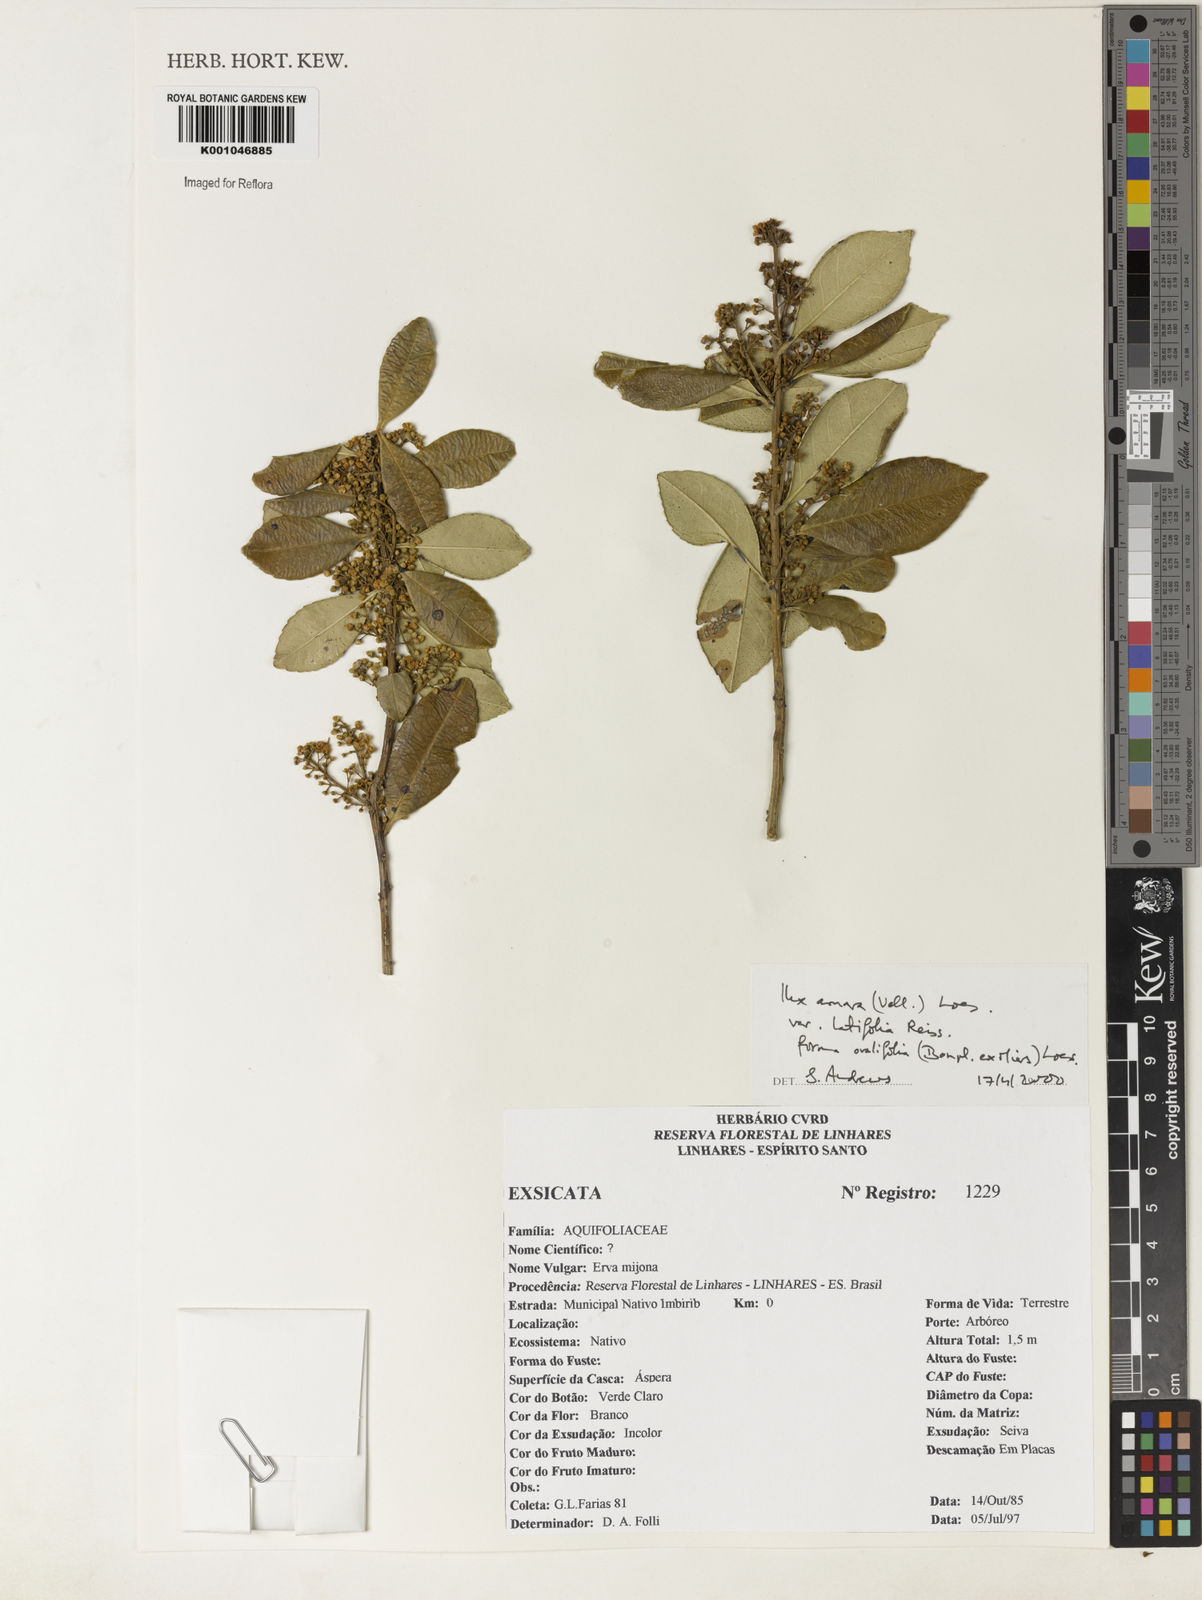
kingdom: Plantae
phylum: Tracheophyta
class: Magnoliopsida
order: Aquifoliales
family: Aquifoliaceae
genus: Ilex
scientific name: Ilex
